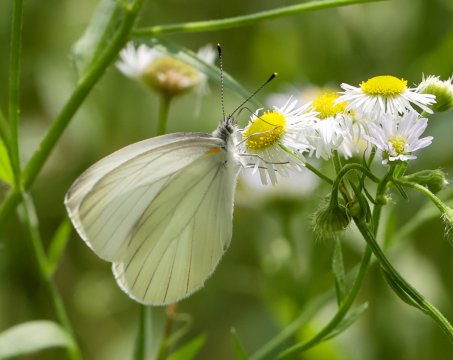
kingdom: Animalia
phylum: Arthropoda
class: Insecta
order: Lepidoptera
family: Pieridae
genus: Pieris
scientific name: Pieris oleracea
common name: Mustard White
